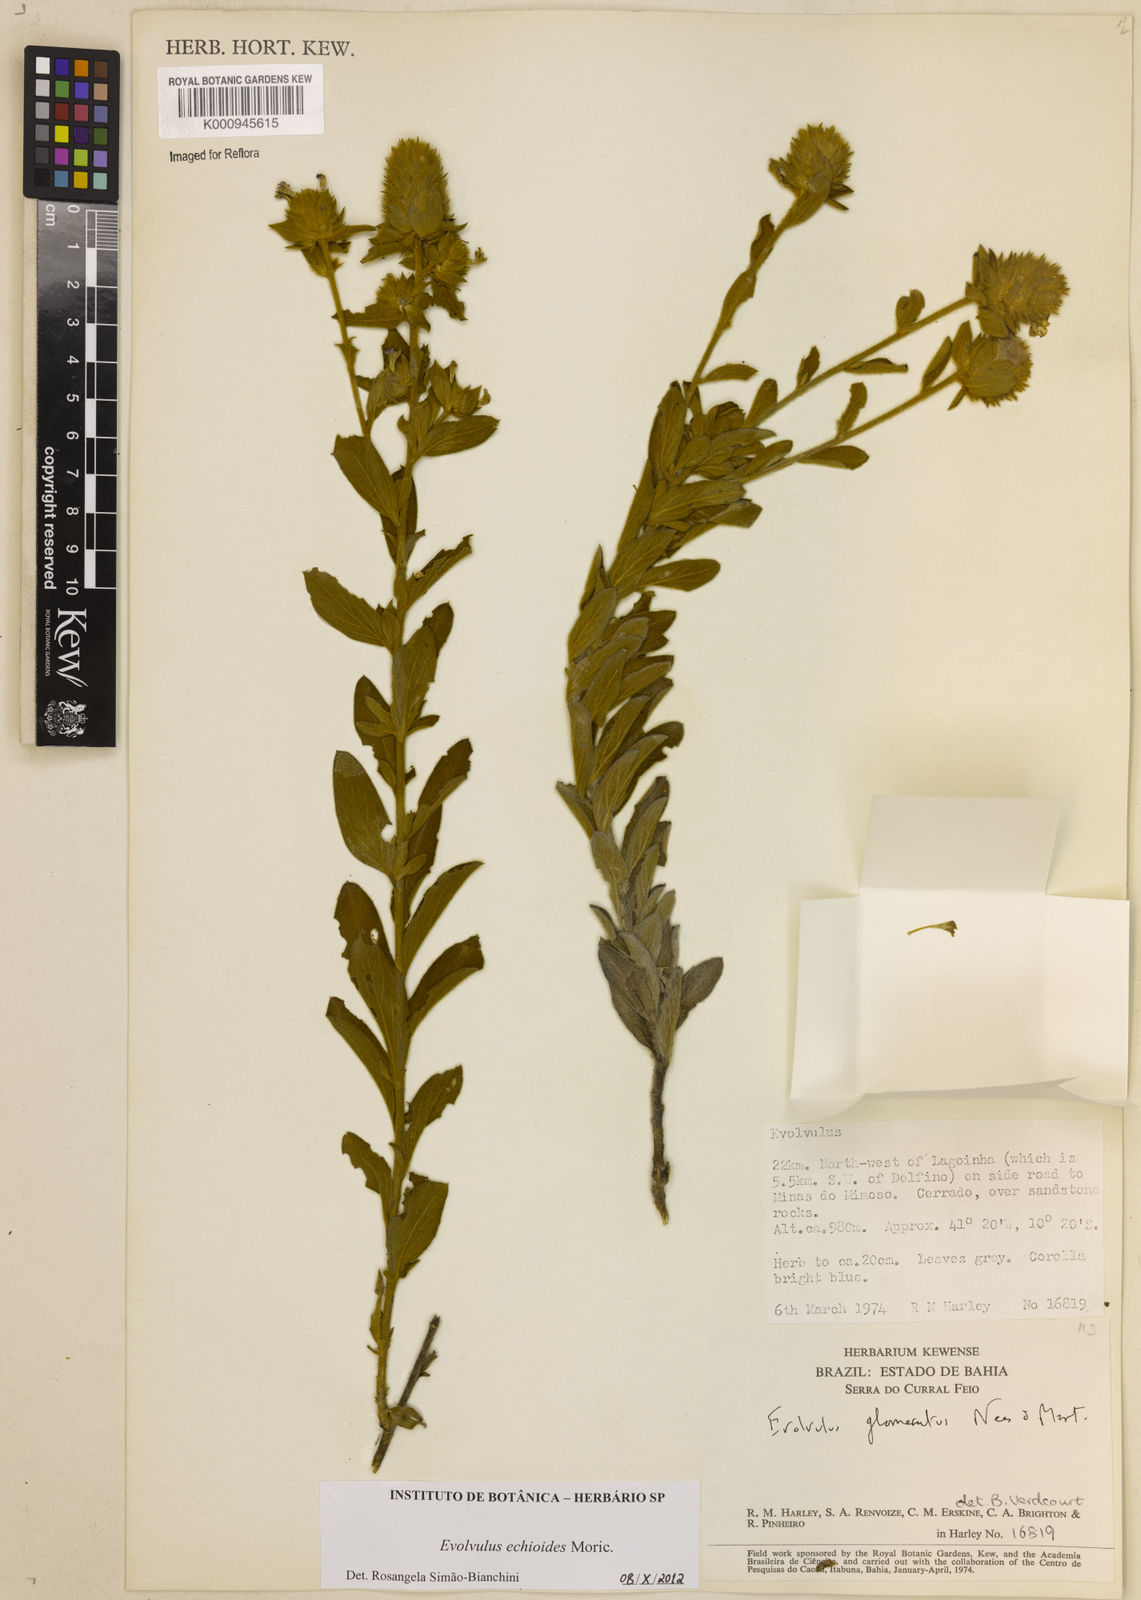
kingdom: Plantae
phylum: Tracheophyta
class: Magnoliopsida
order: Solanales
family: Convolvulaceae
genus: Evolvulus
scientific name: Evolvulus echioides
